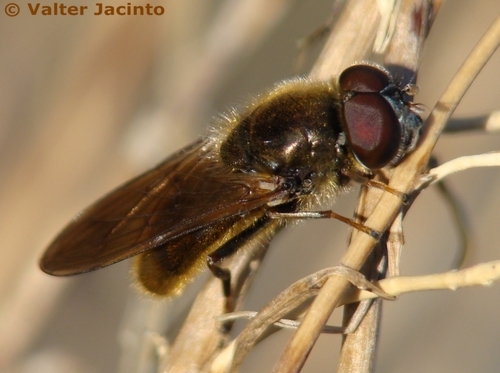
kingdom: Animalia
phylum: Arthropoda
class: Insecta
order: Diptera
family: Syrphidae
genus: Cheilosia
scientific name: Cheilosia griseiventris
